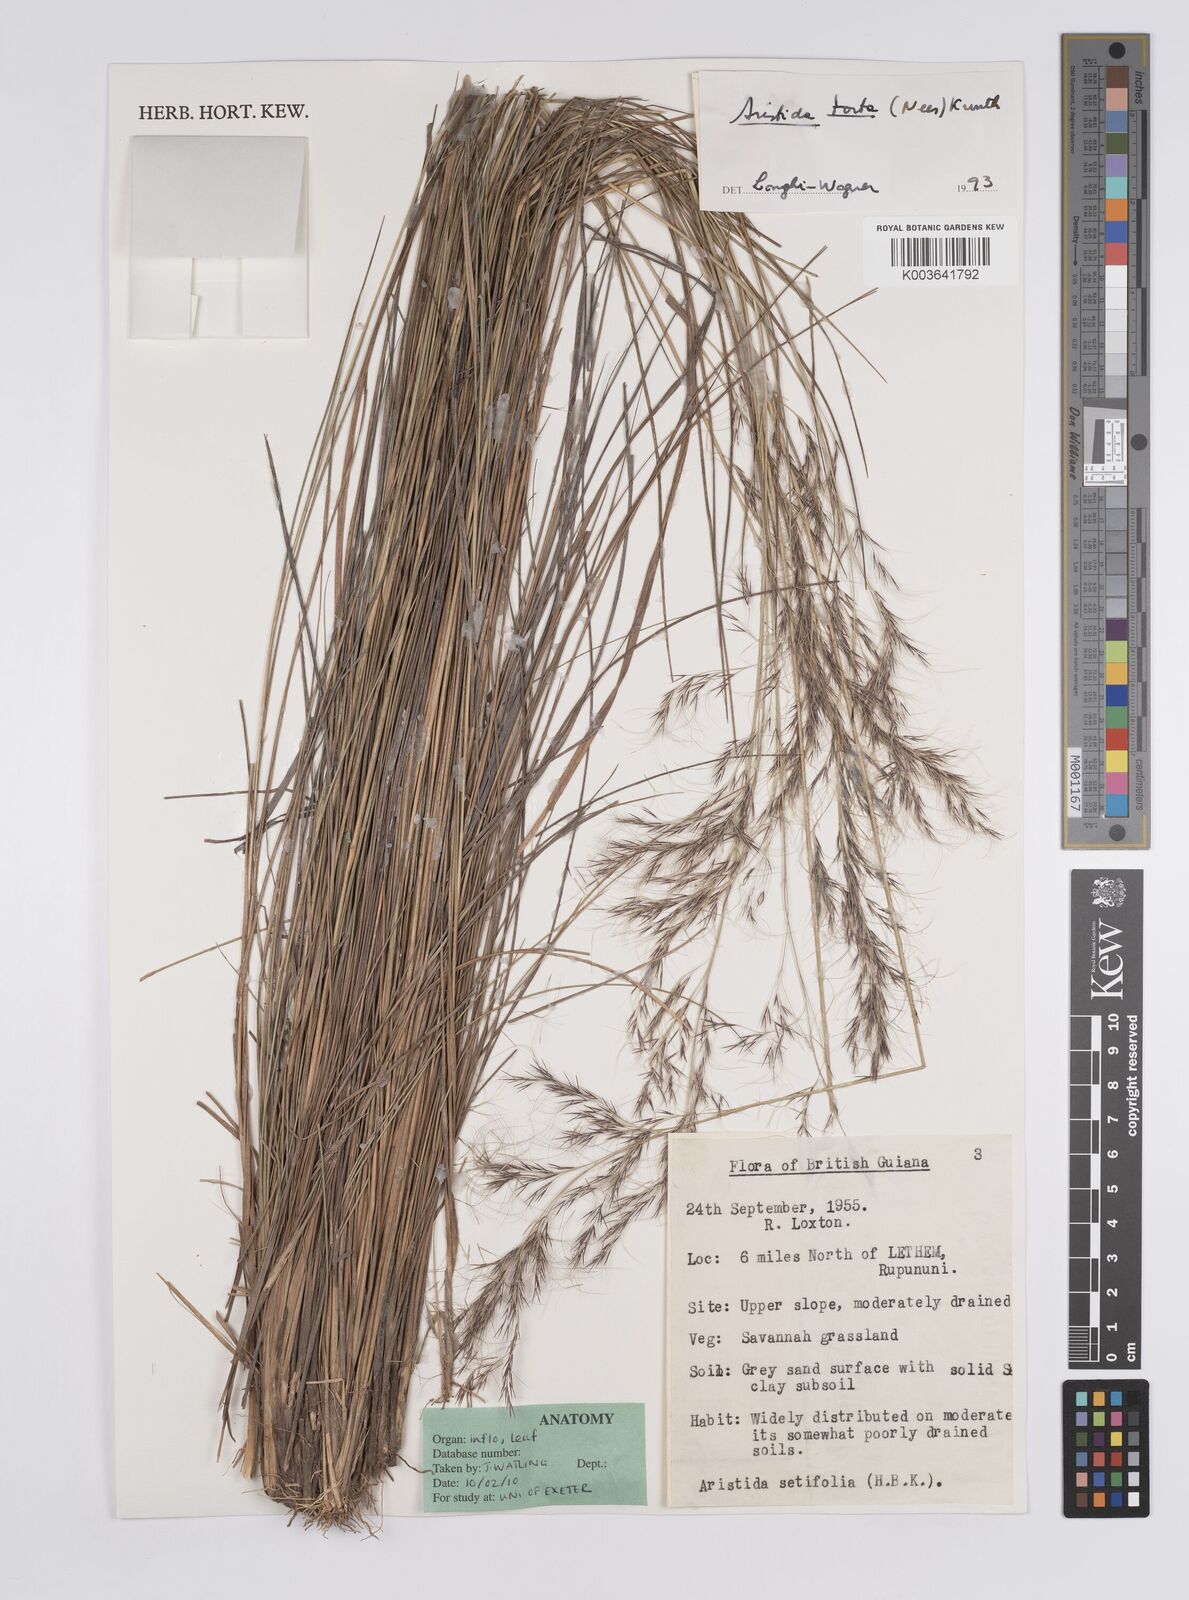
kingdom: Plantae
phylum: Tracheophyta
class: Liliopsida
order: Poales
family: Poaceae
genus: Aristida
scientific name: Aristida torta
